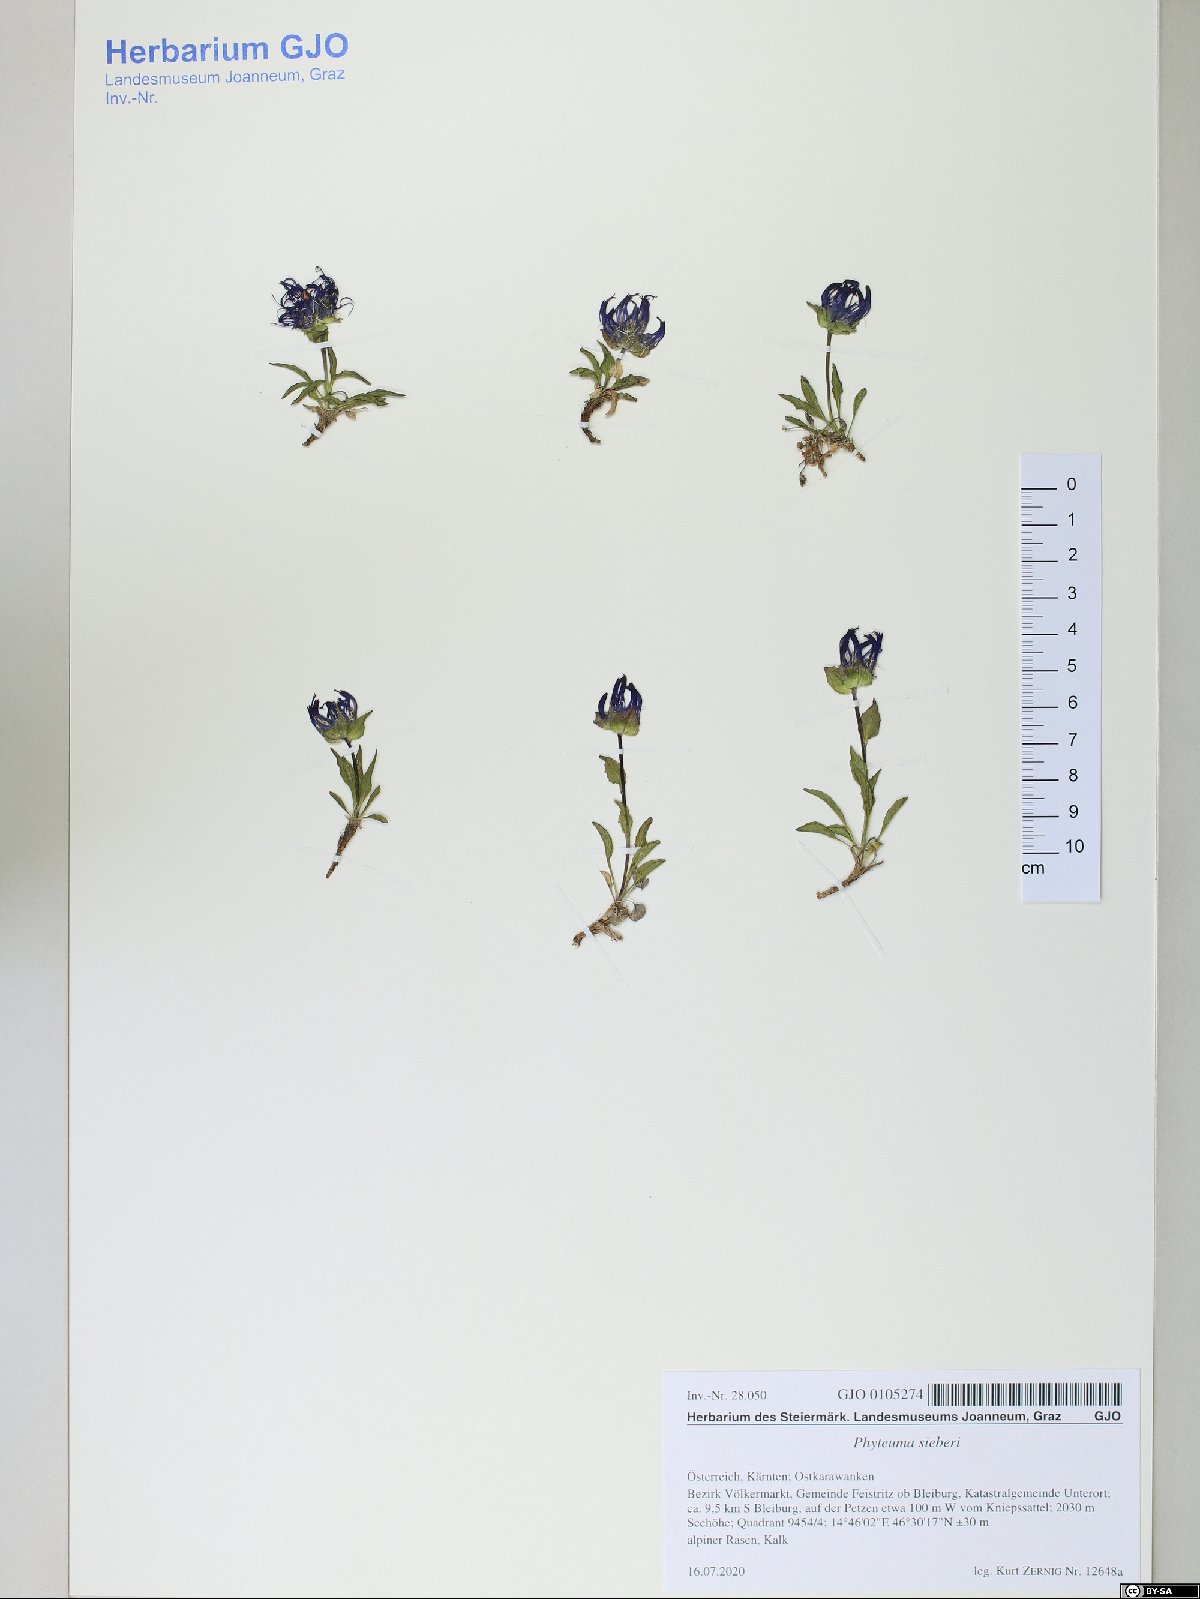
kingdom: Plantae
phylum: Tracheophyta
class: Magnoliopsida
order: Asterales
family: Campanulaceae
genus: Phyteuma
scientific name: Phyteuma sieberi
